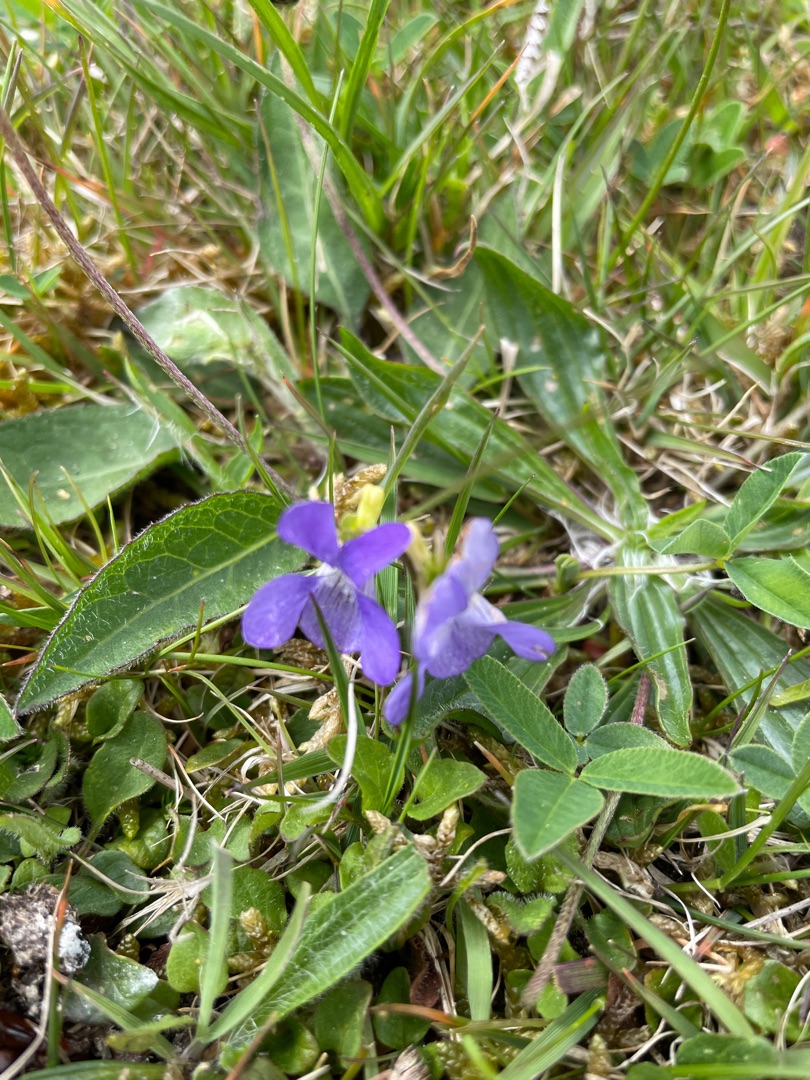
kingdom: Plantae
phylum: Tracheophyta
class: Magnoliopsida
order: Malpighiales
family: Violaceae
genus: Viola
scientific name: Viola canina
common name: Hunde-viol
